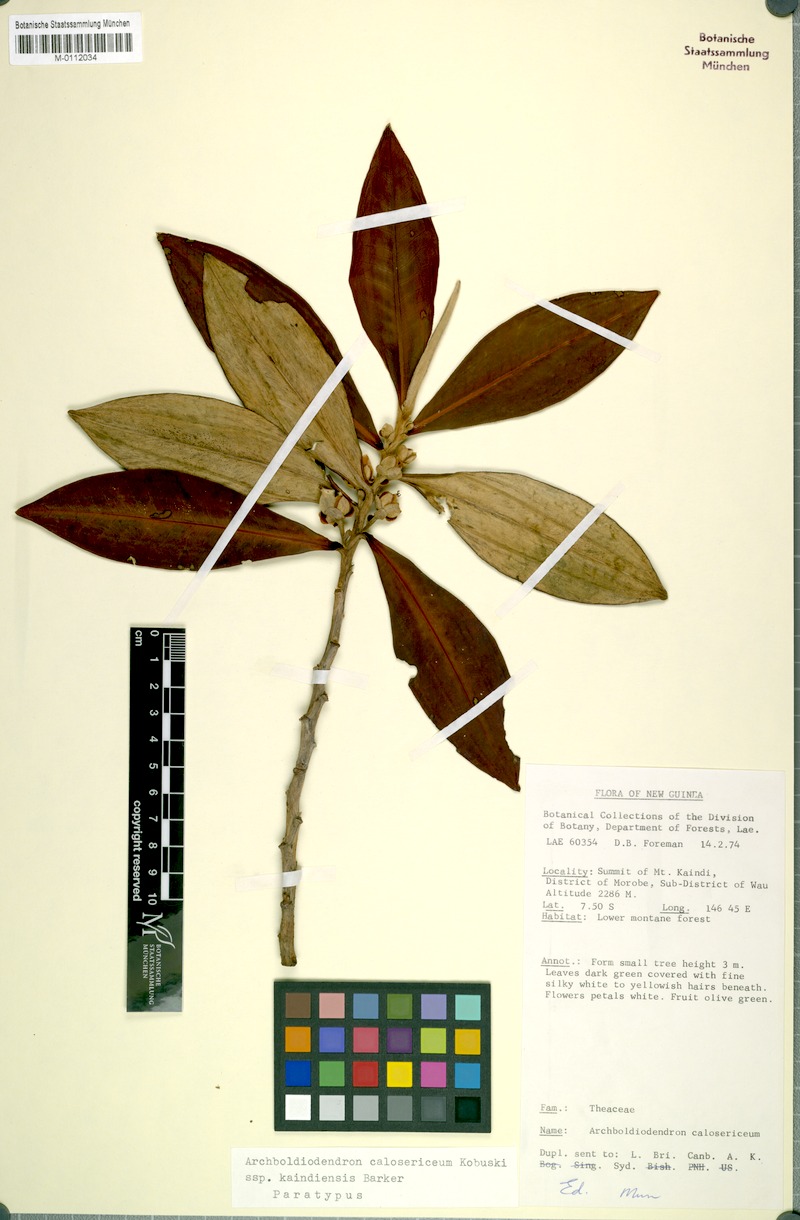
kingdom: Plantae
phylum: Tracheophyta
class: Magnoliopsida
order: Ericales
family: Pentaphylacaceae
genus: Archboldiodendron
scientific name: Archboldiodendron calosericeum
